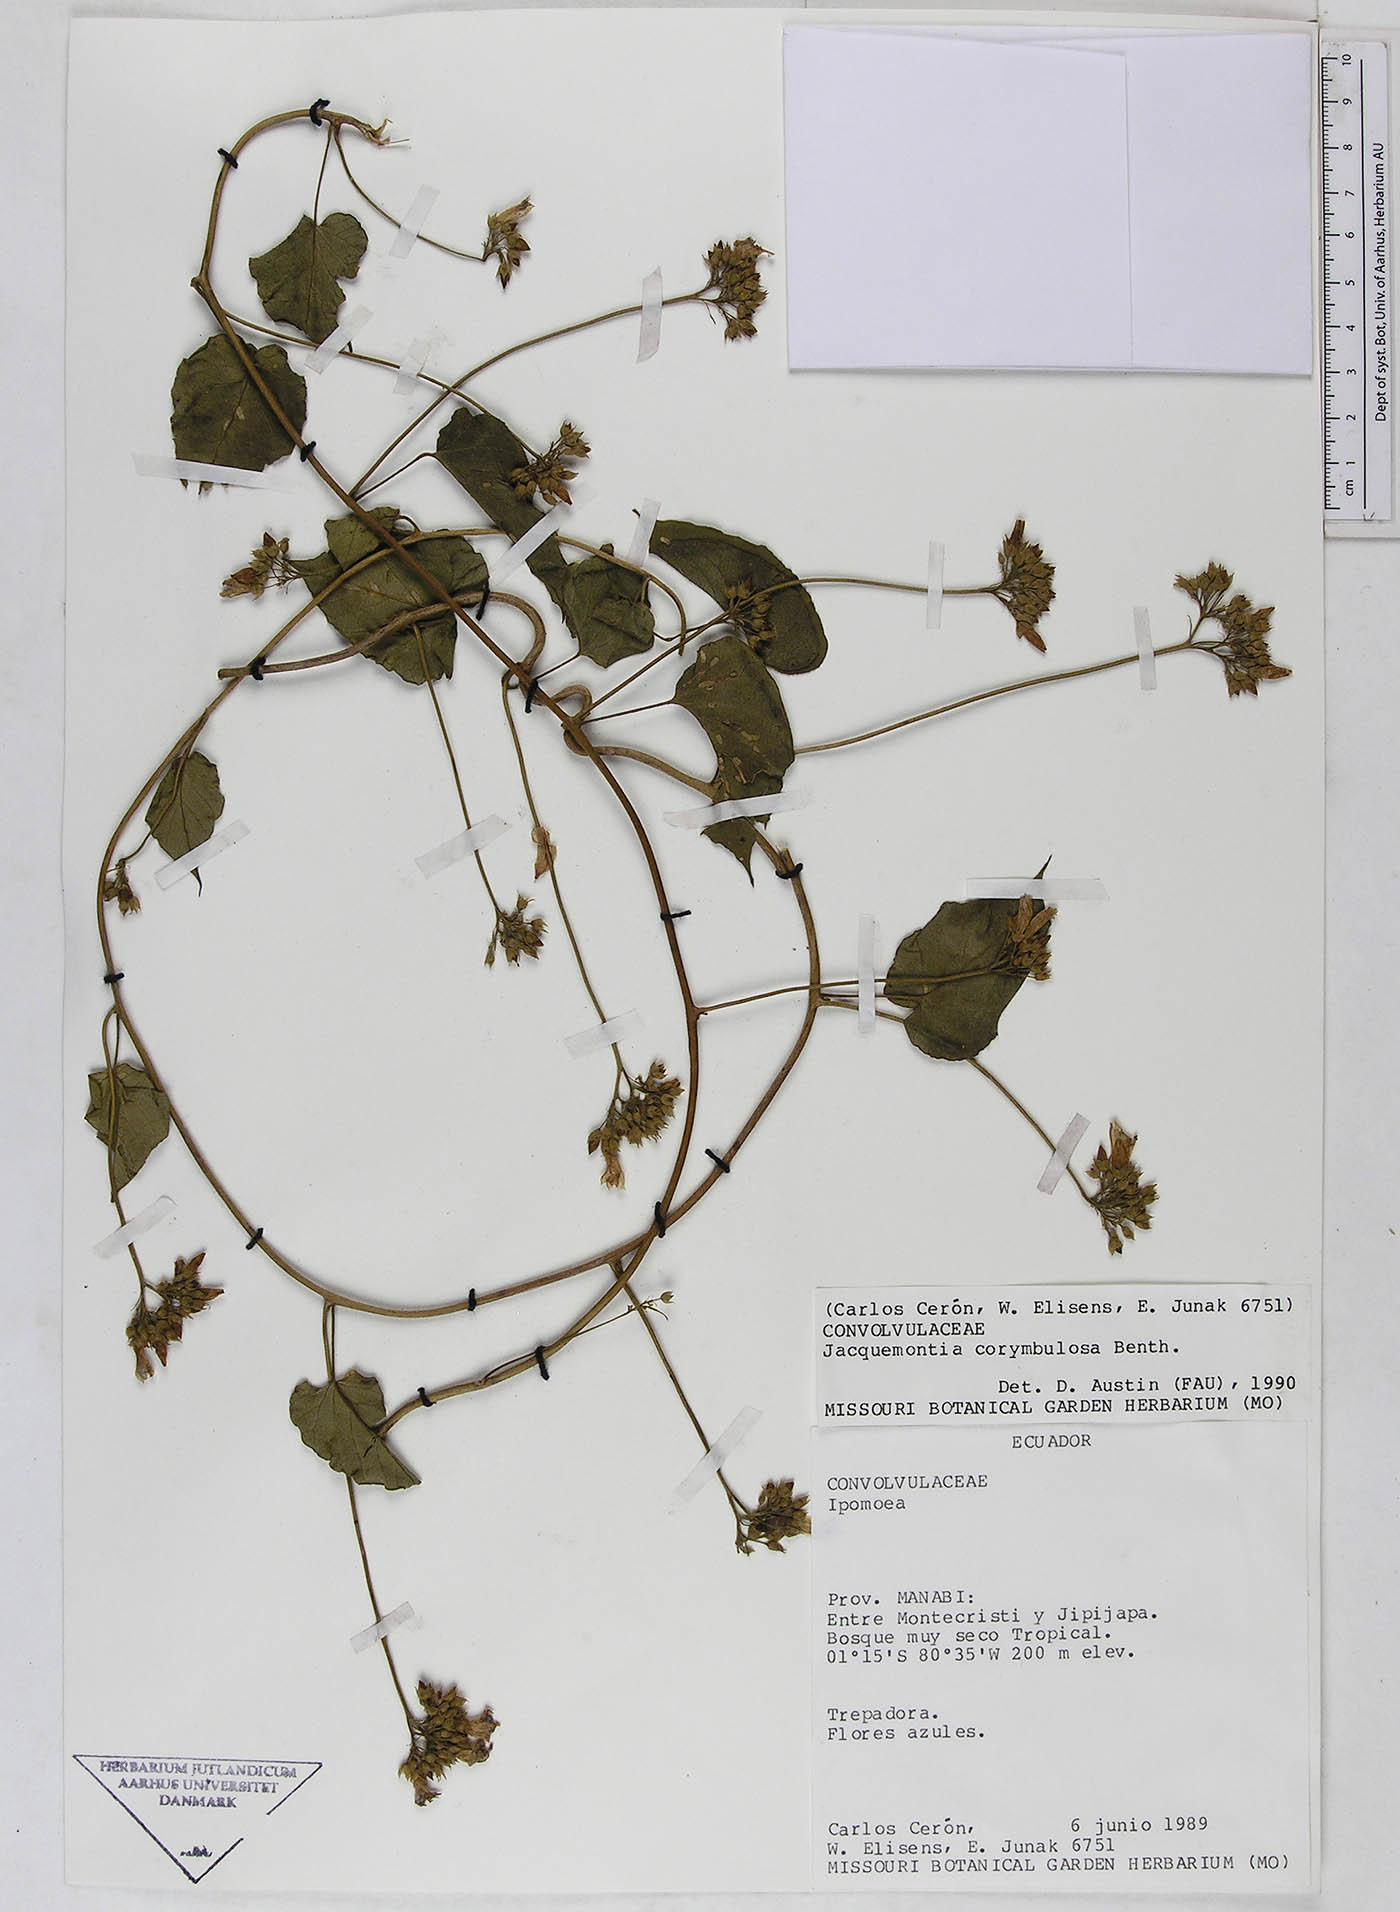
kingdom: Plantae
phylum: Tracheophyta
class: Magnoliopsida
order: Solanales
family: Convolvulaceae
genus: Jacquemontia
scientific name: Jacquemontia corymbulosa
